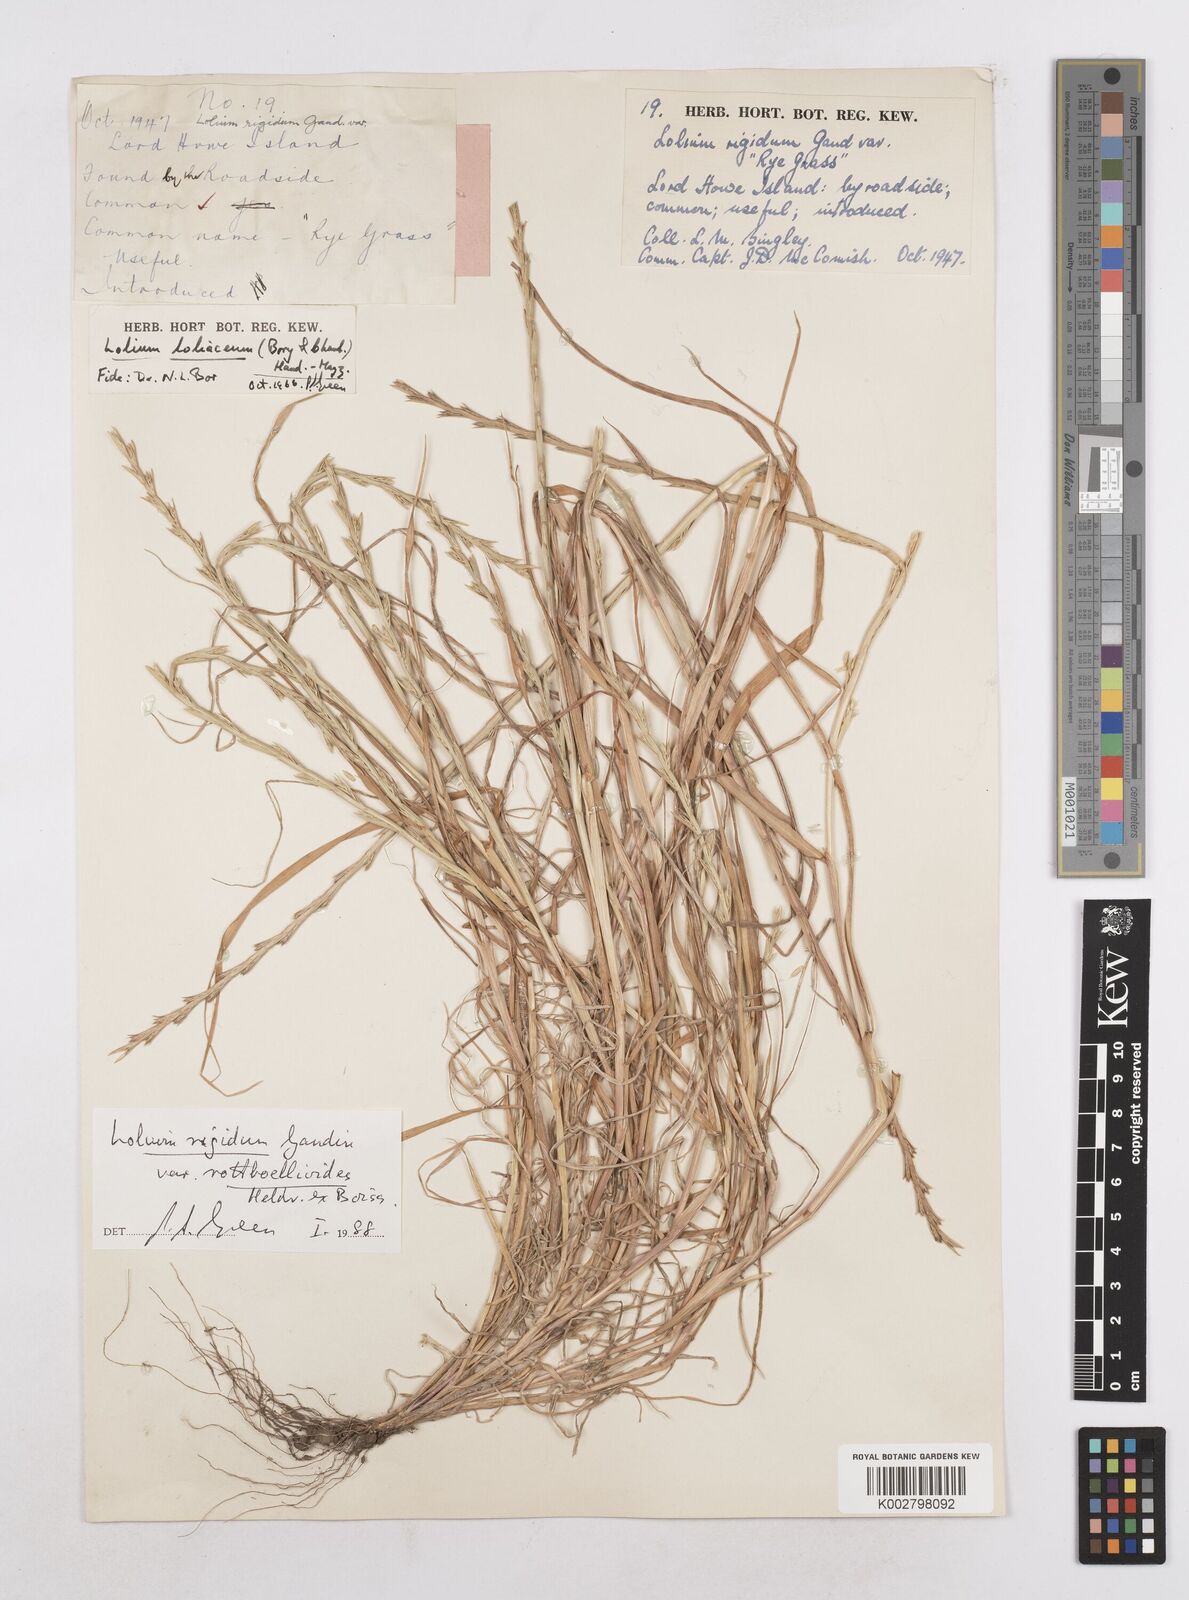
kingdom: Plantae
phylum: Tracheophyta
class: Liliopsida
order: Poales
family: Poaceae
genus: Lolium
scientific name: Lolium rigidum
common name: Wimmera ryegrass
